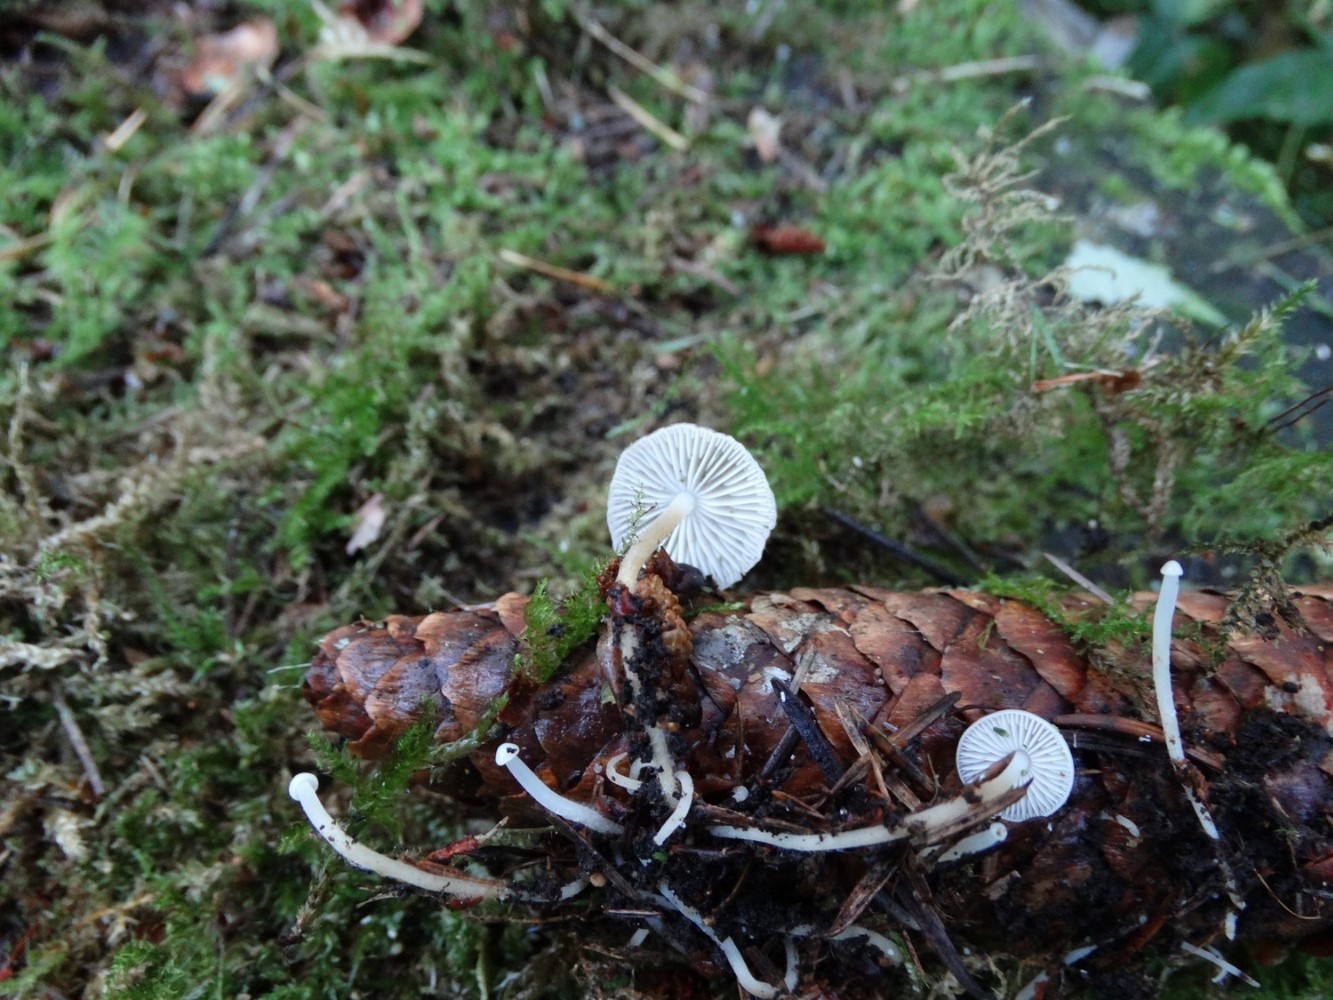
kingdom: Fungi
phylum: Basidiomycota
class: Agaricomycetes
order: Agaricales
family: Physalacriaceae
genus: Strobilurus
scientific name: Strobilurus esculentus
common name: gran-koglehat
